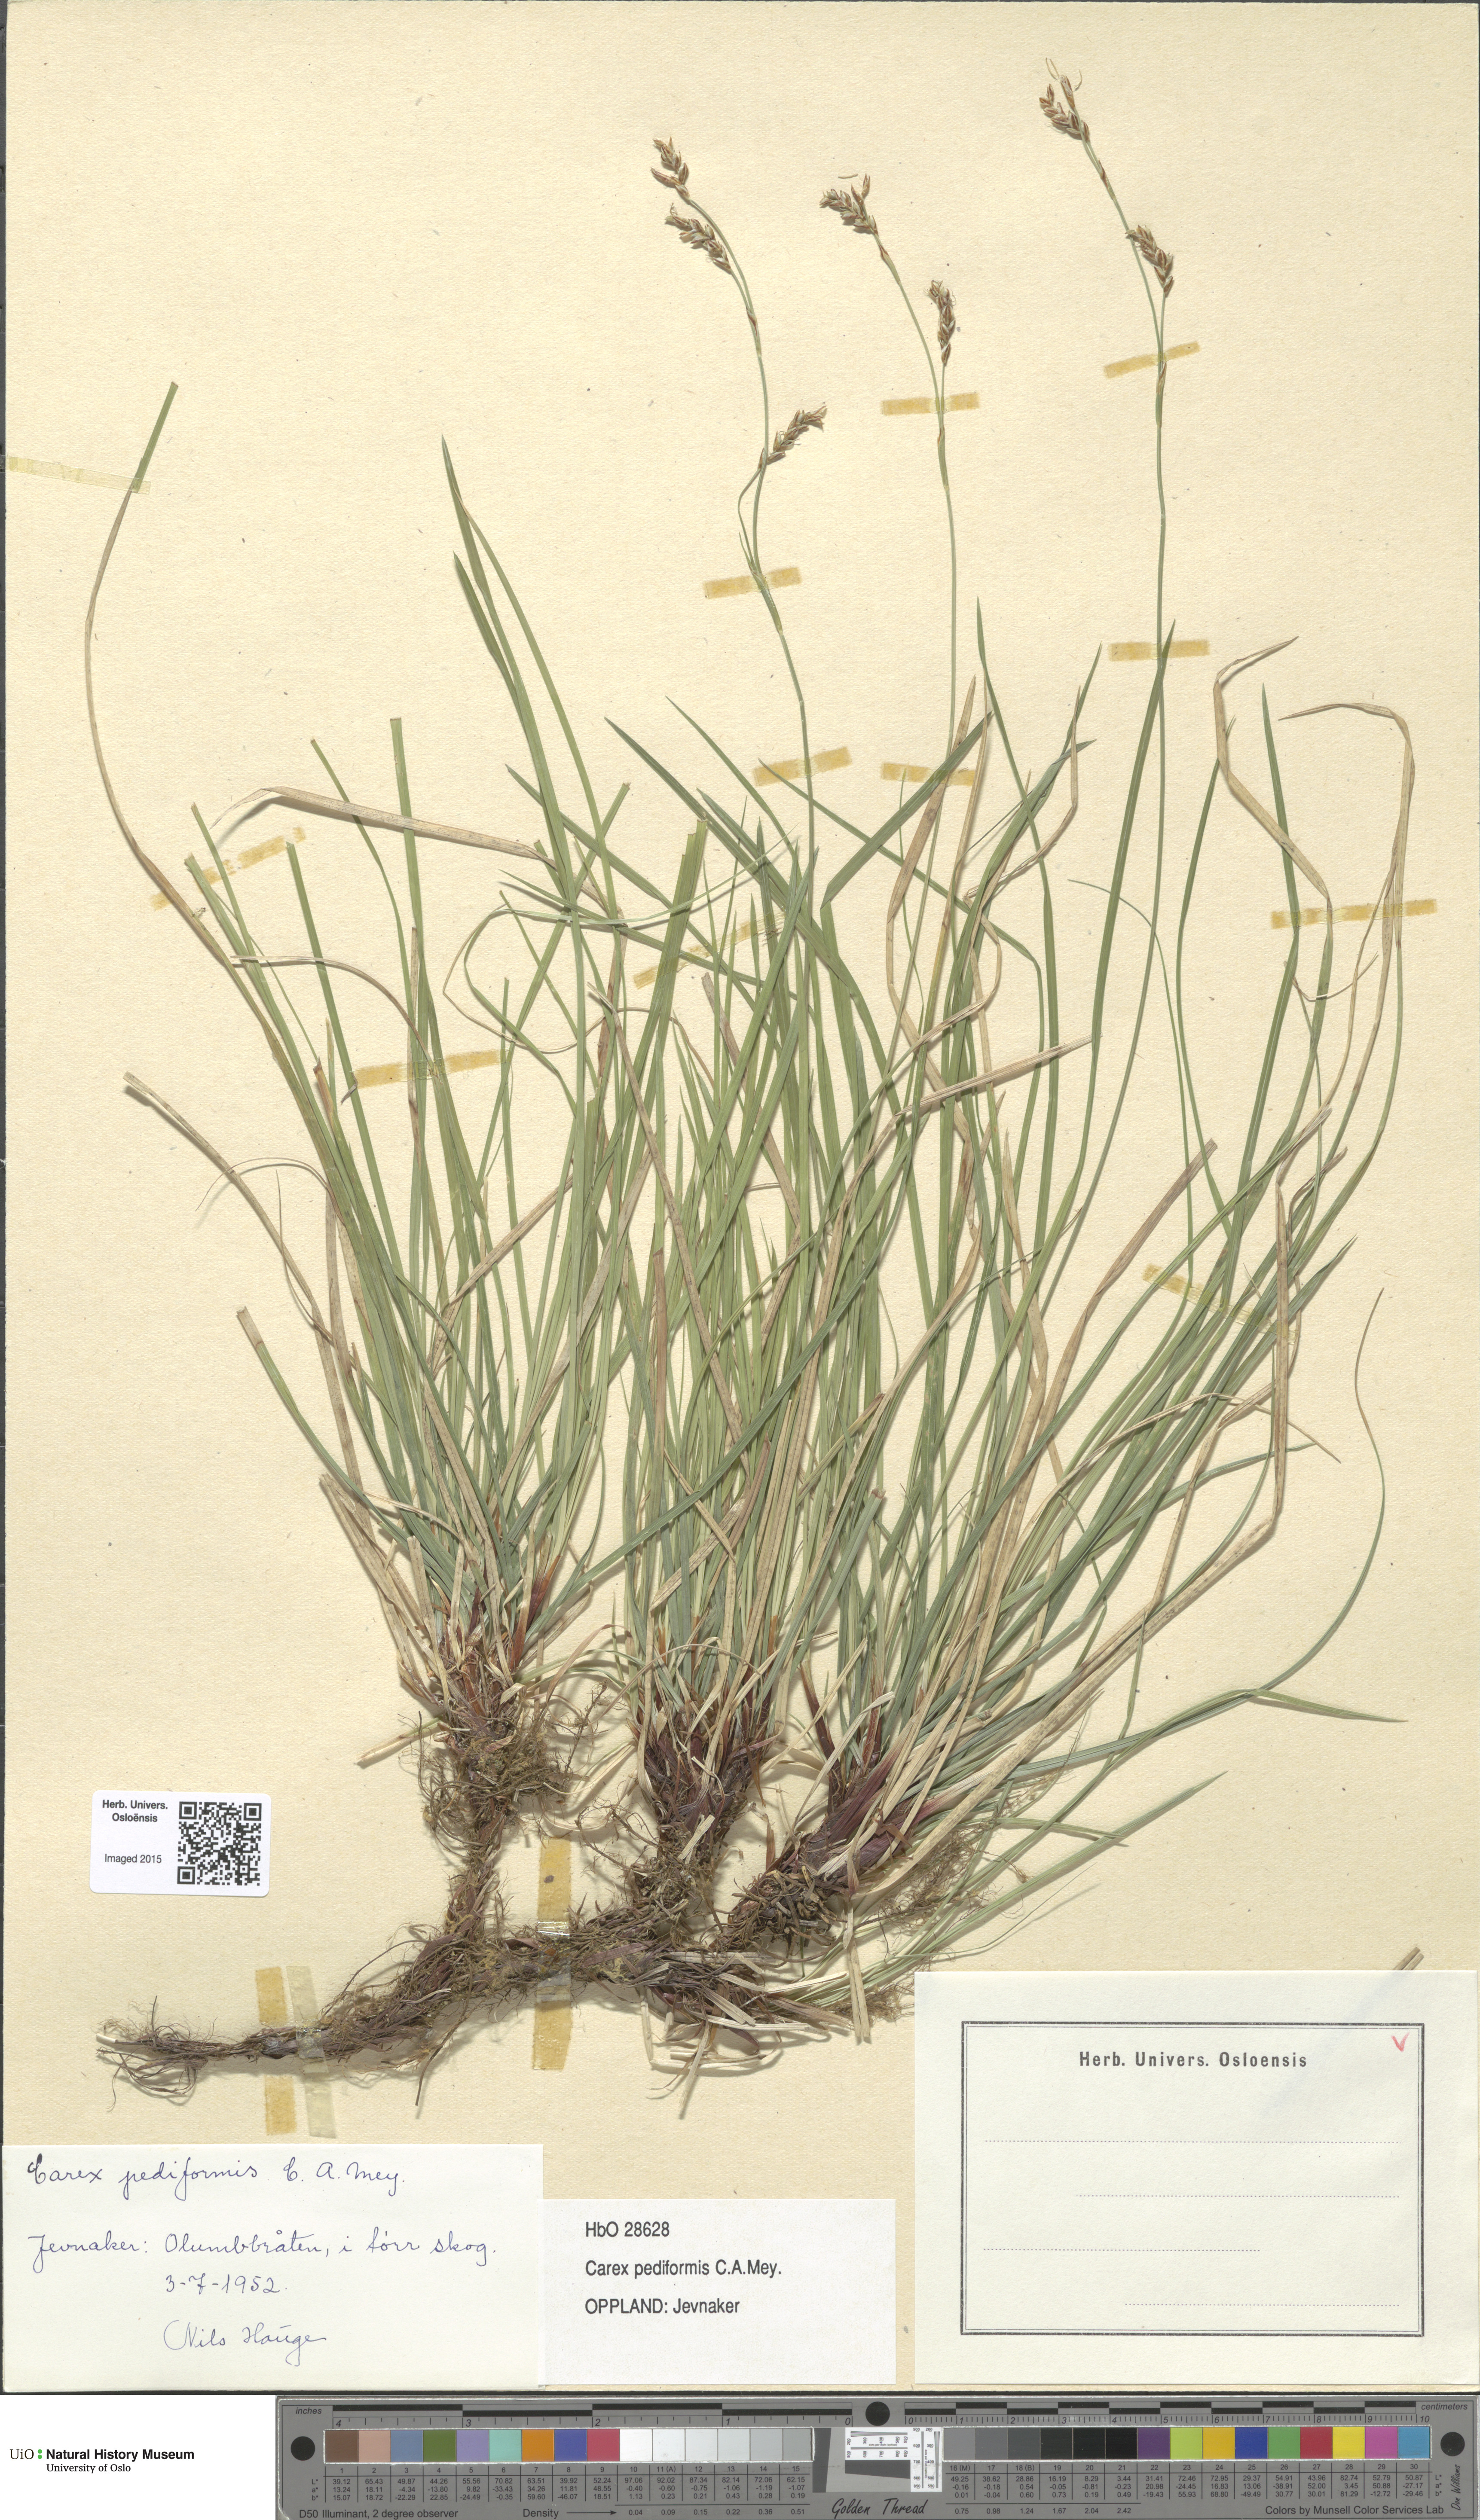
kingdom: Plantae
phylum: Tracheophyta
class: Liliopsida
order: Poales
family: Cyperaceae
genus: Carex
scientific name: Carex rhizina
